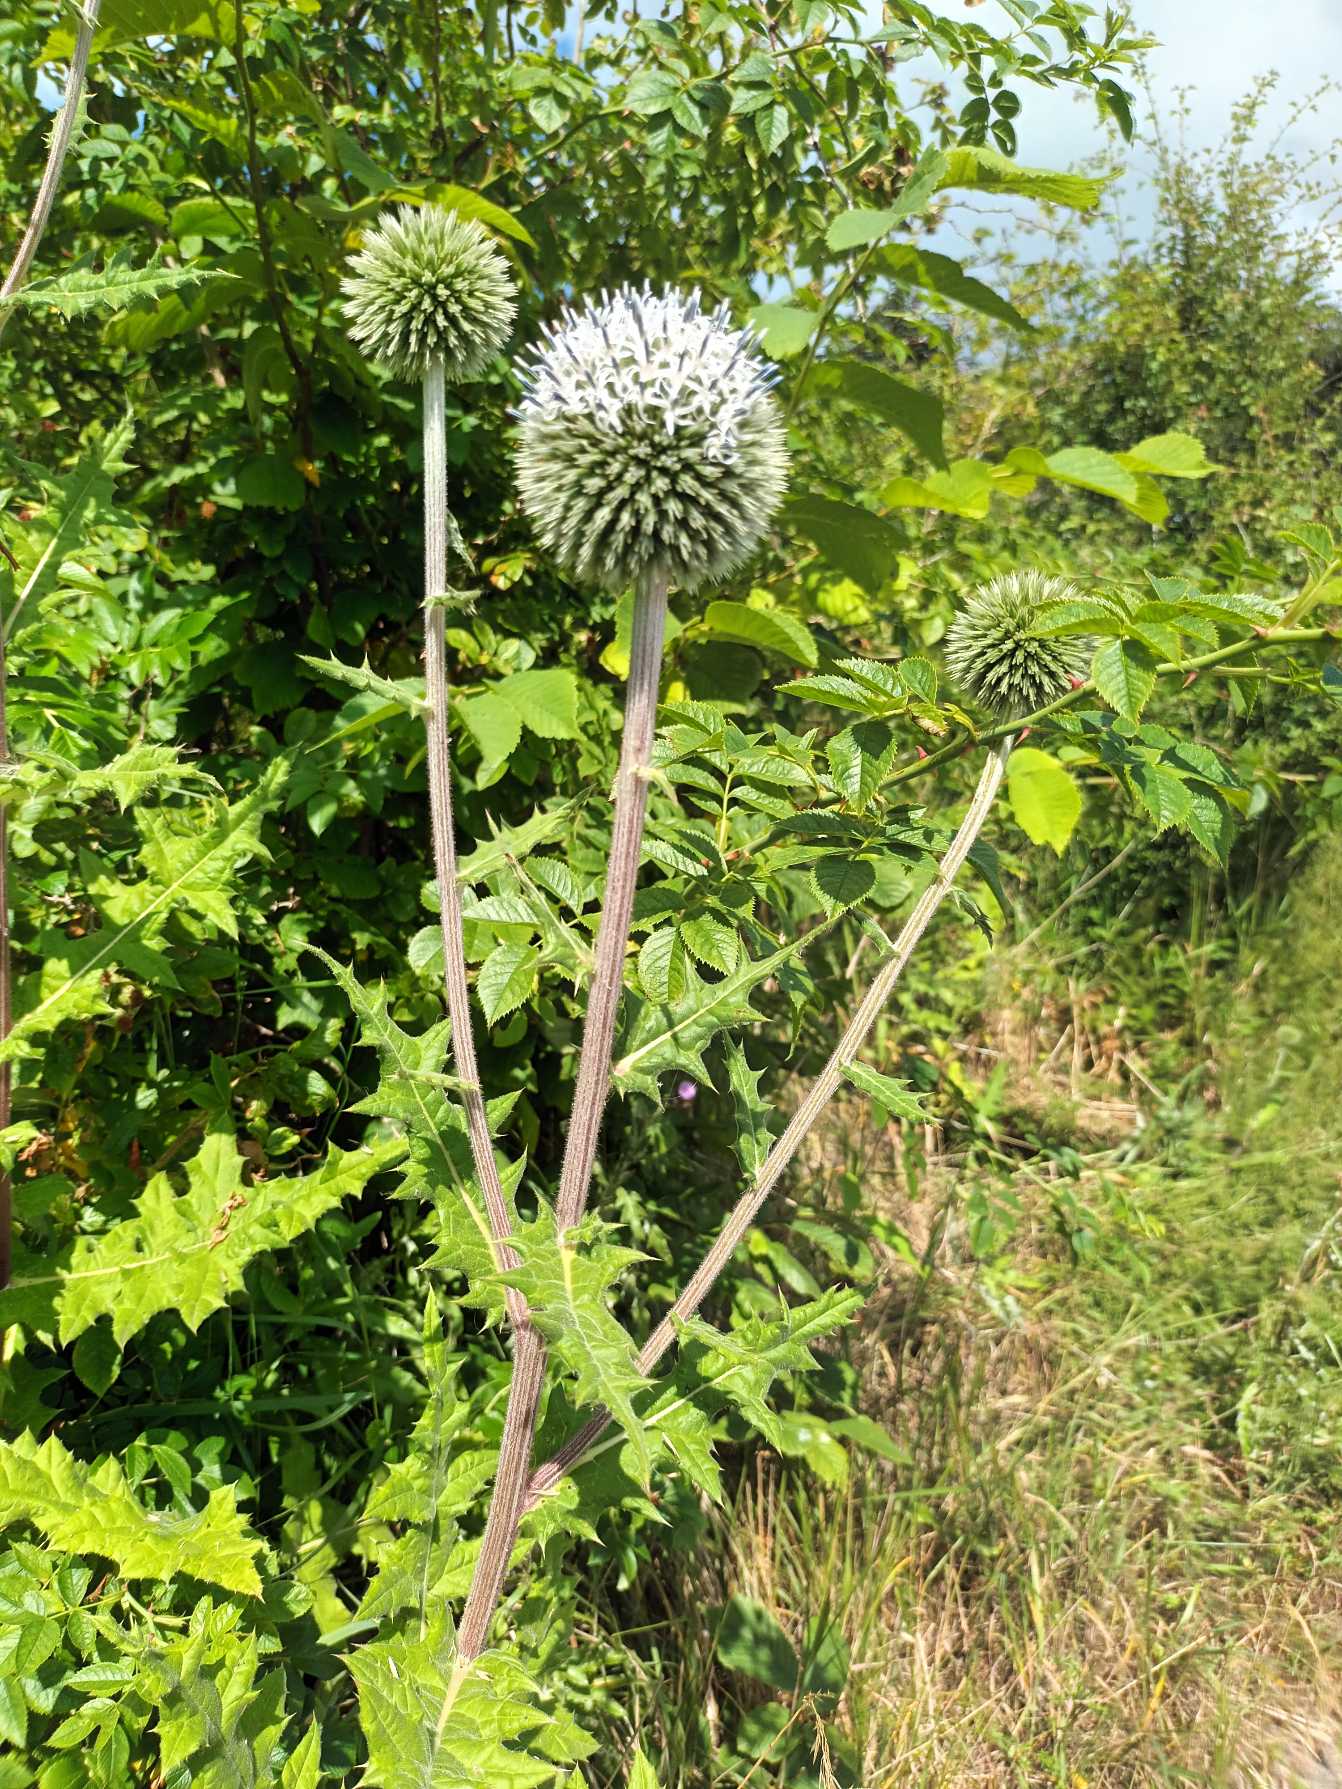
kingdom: Plantae
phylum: Tracheophyta
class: Magnoliopsida
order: Asterales
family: Asteraceae
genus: Echinops
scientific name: Echinops sphaerocephalus
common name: Fligetbladet tidselkugle
